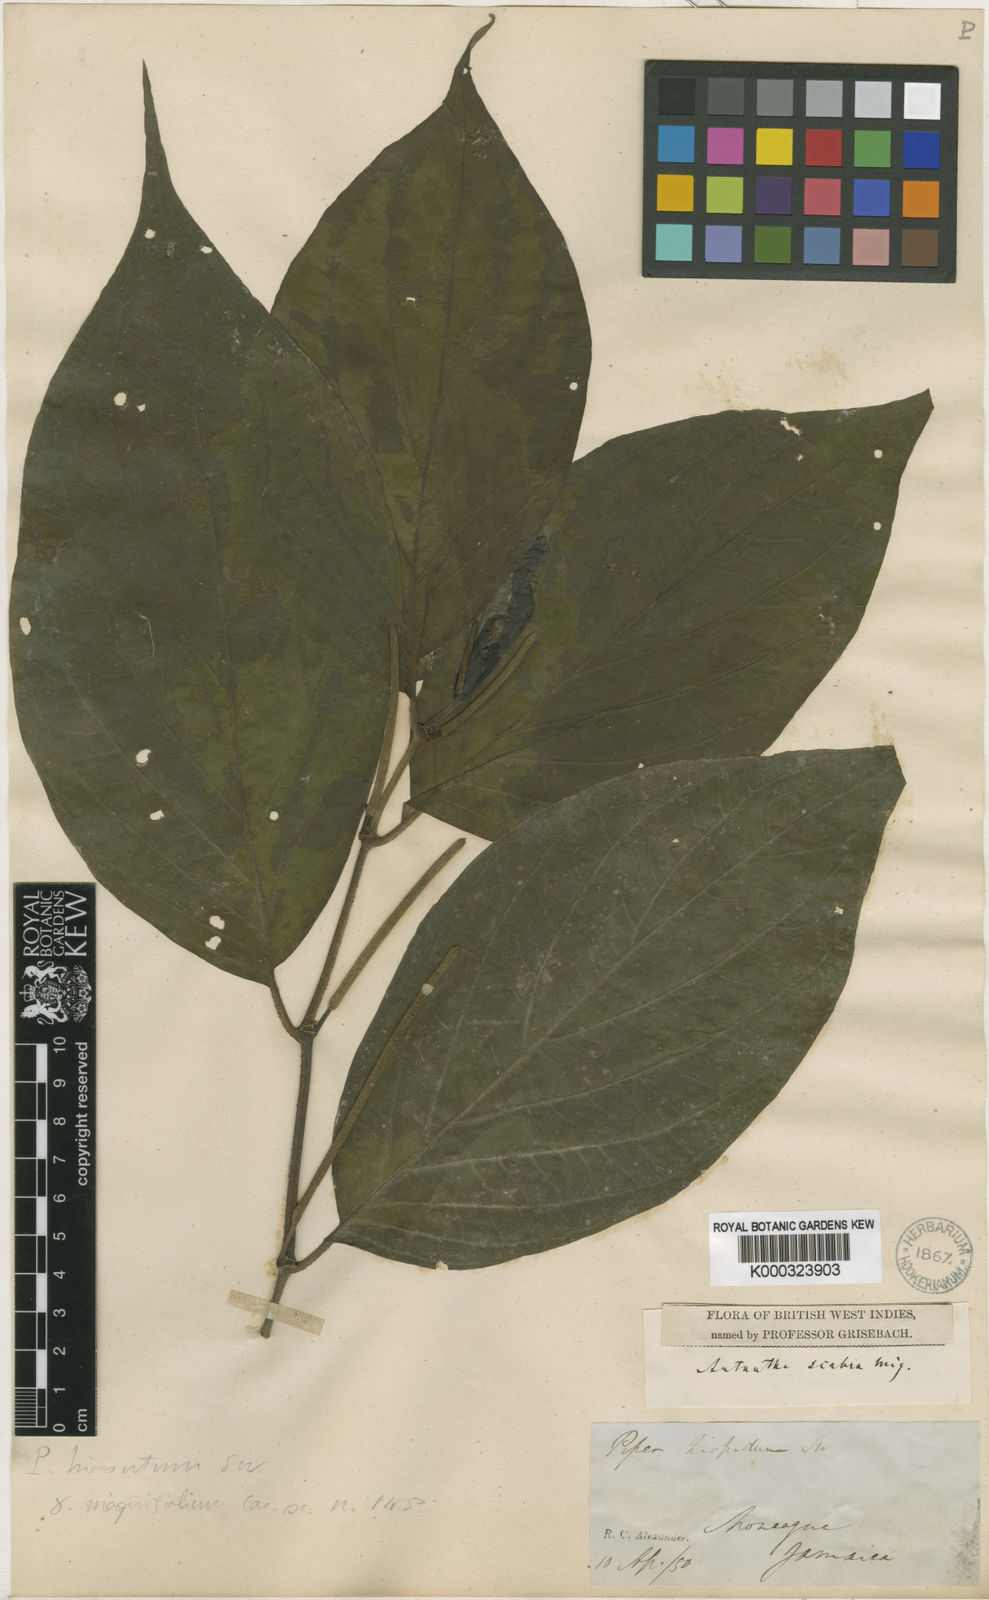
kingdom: Plantae
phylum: Tracheophyta
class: Magnoliopsida
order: Piperales
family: Piperaceae
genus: Piper
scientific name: Piper hispidum
